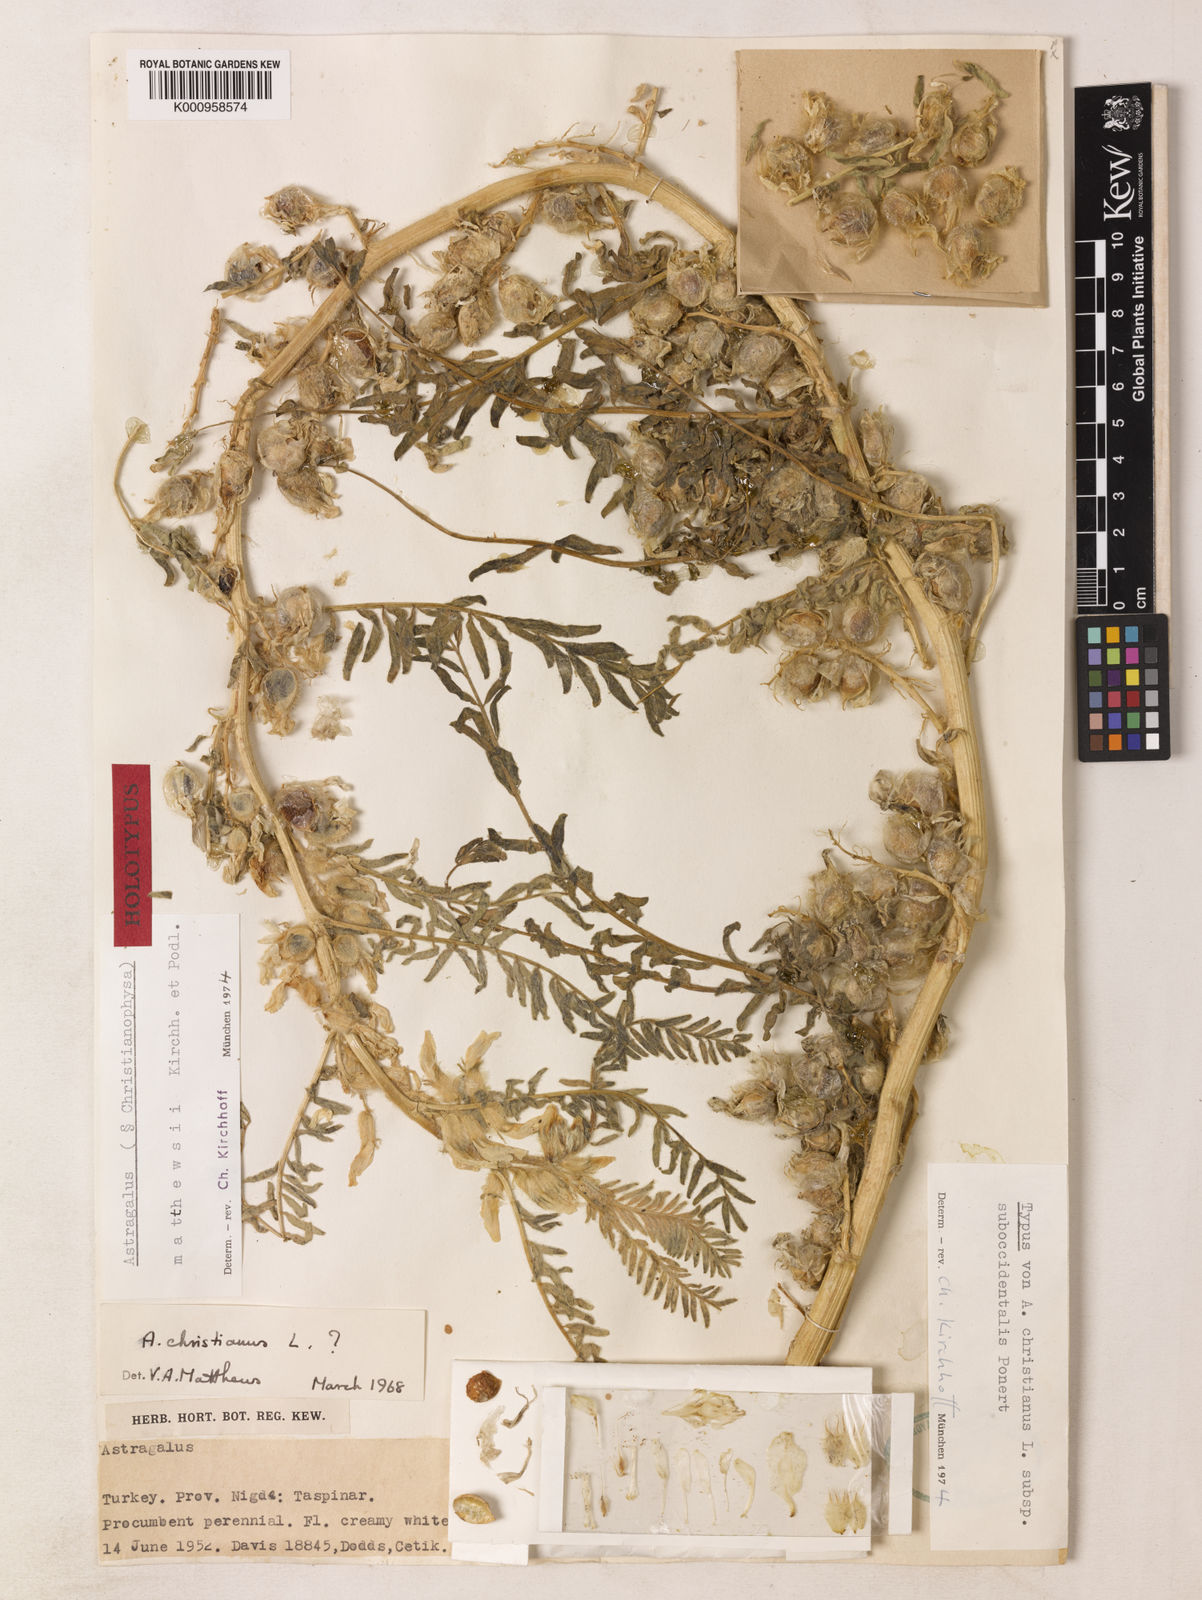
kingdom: Plantae
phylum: Tracheophyta
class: Magnoliopsida
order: Fabales
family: Fabaceae
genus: Astragalus
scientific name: Astragalus christianus
